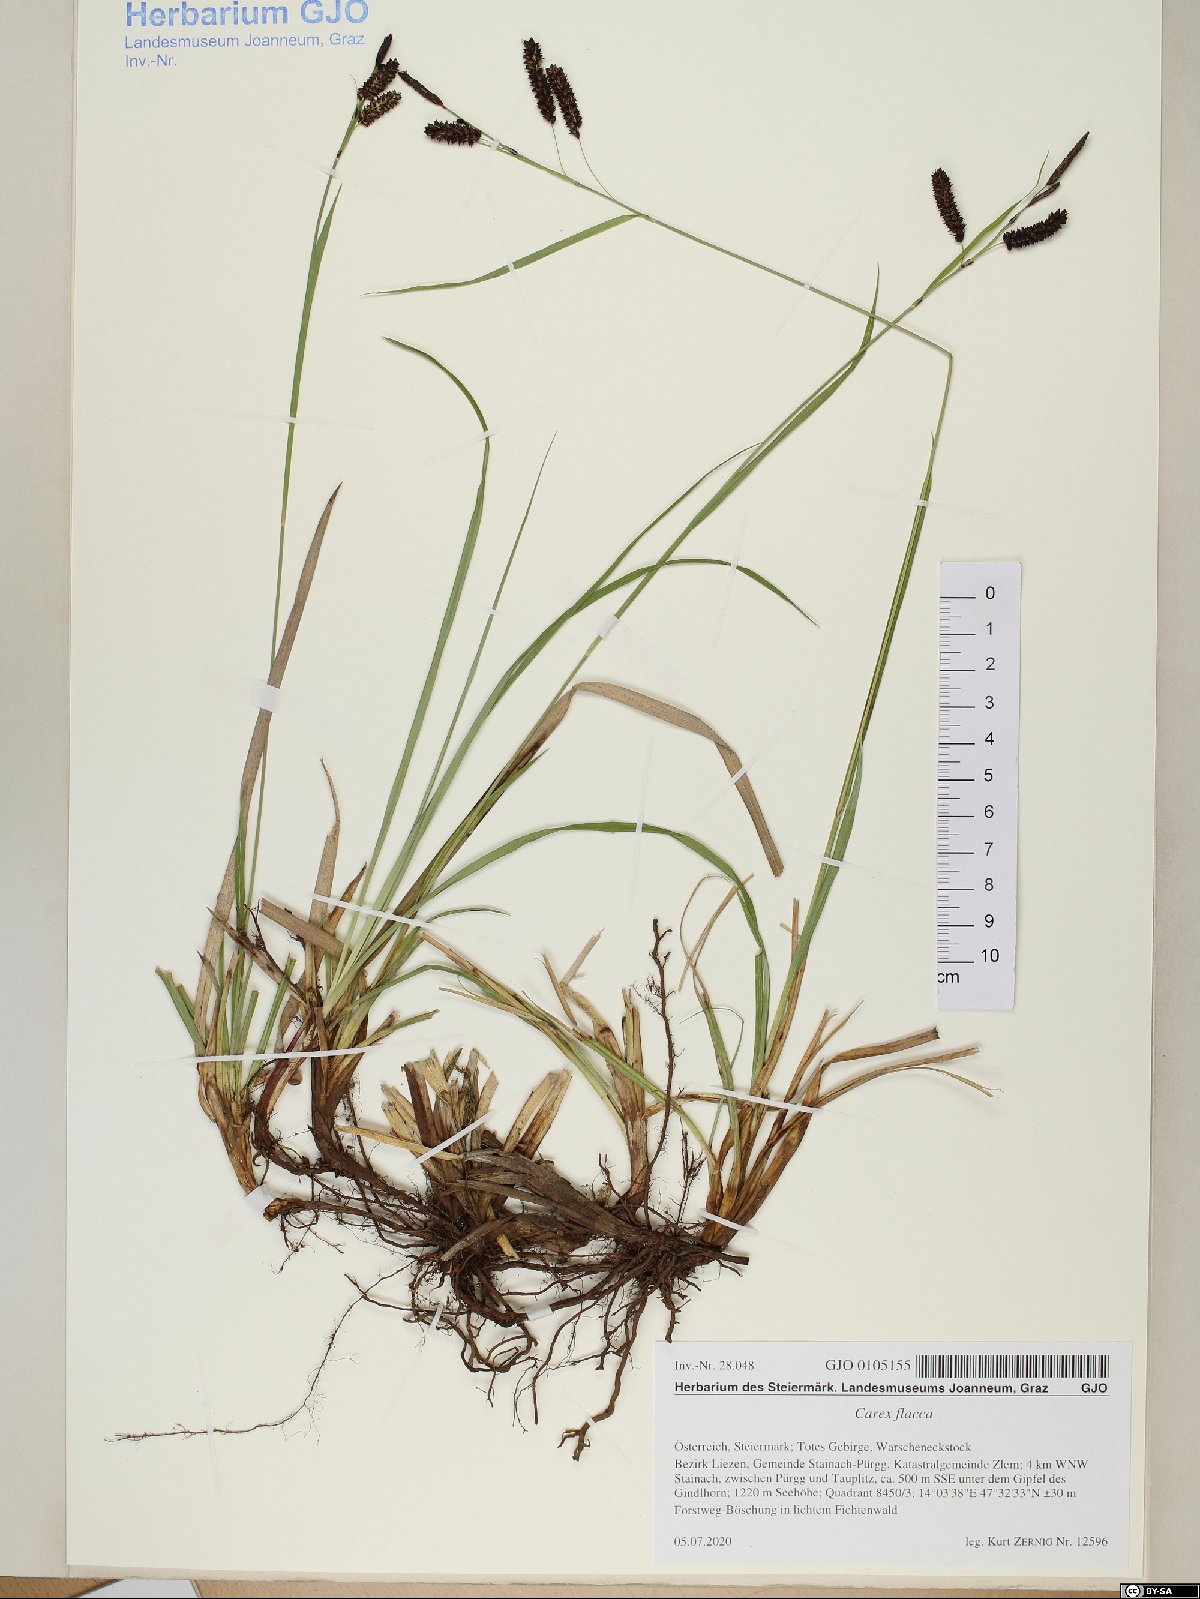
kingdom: Plantae
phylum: Tracheophyta
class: Liliopsida
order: Poales
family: Cyperaceae
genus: Carex
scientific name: Carex flacca
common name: Glaucous sedge
